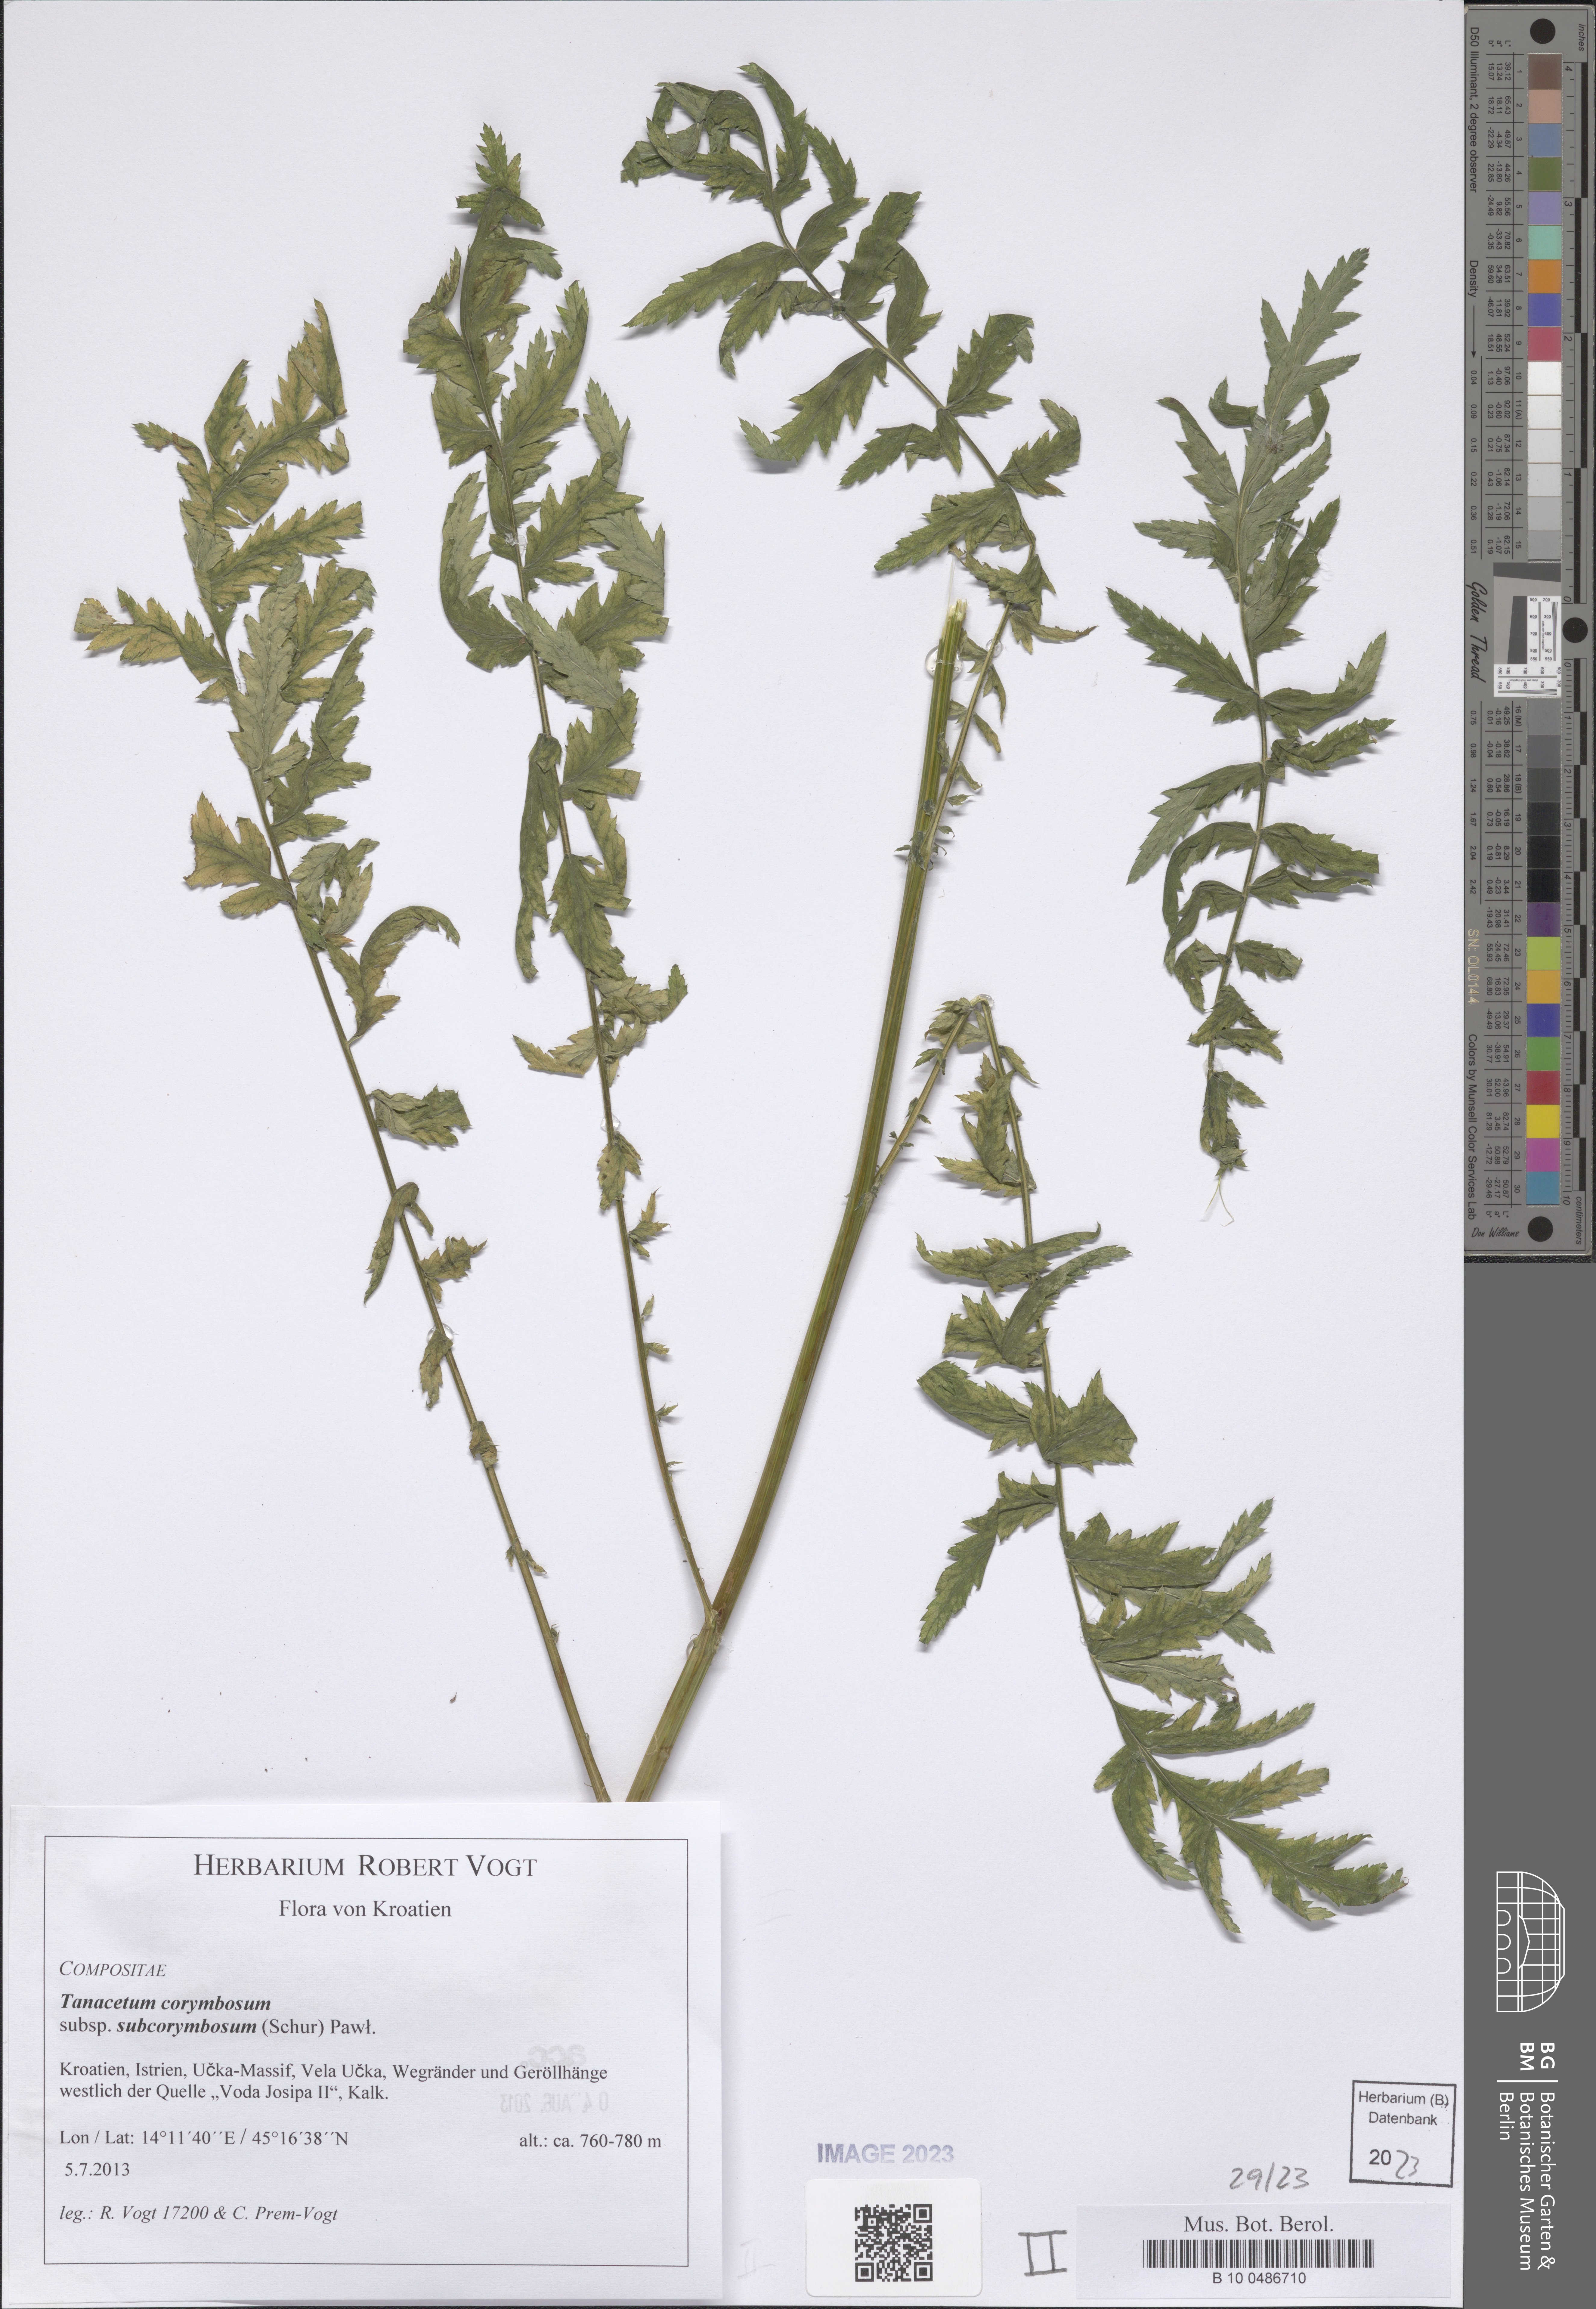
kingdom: Plantae
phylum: Tracheophyta
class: Magnoliopsida
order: Asterales
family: Asteraceae
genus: Tanacetum
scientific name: Tanacetum corymbosum
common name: Scentless feverfew
